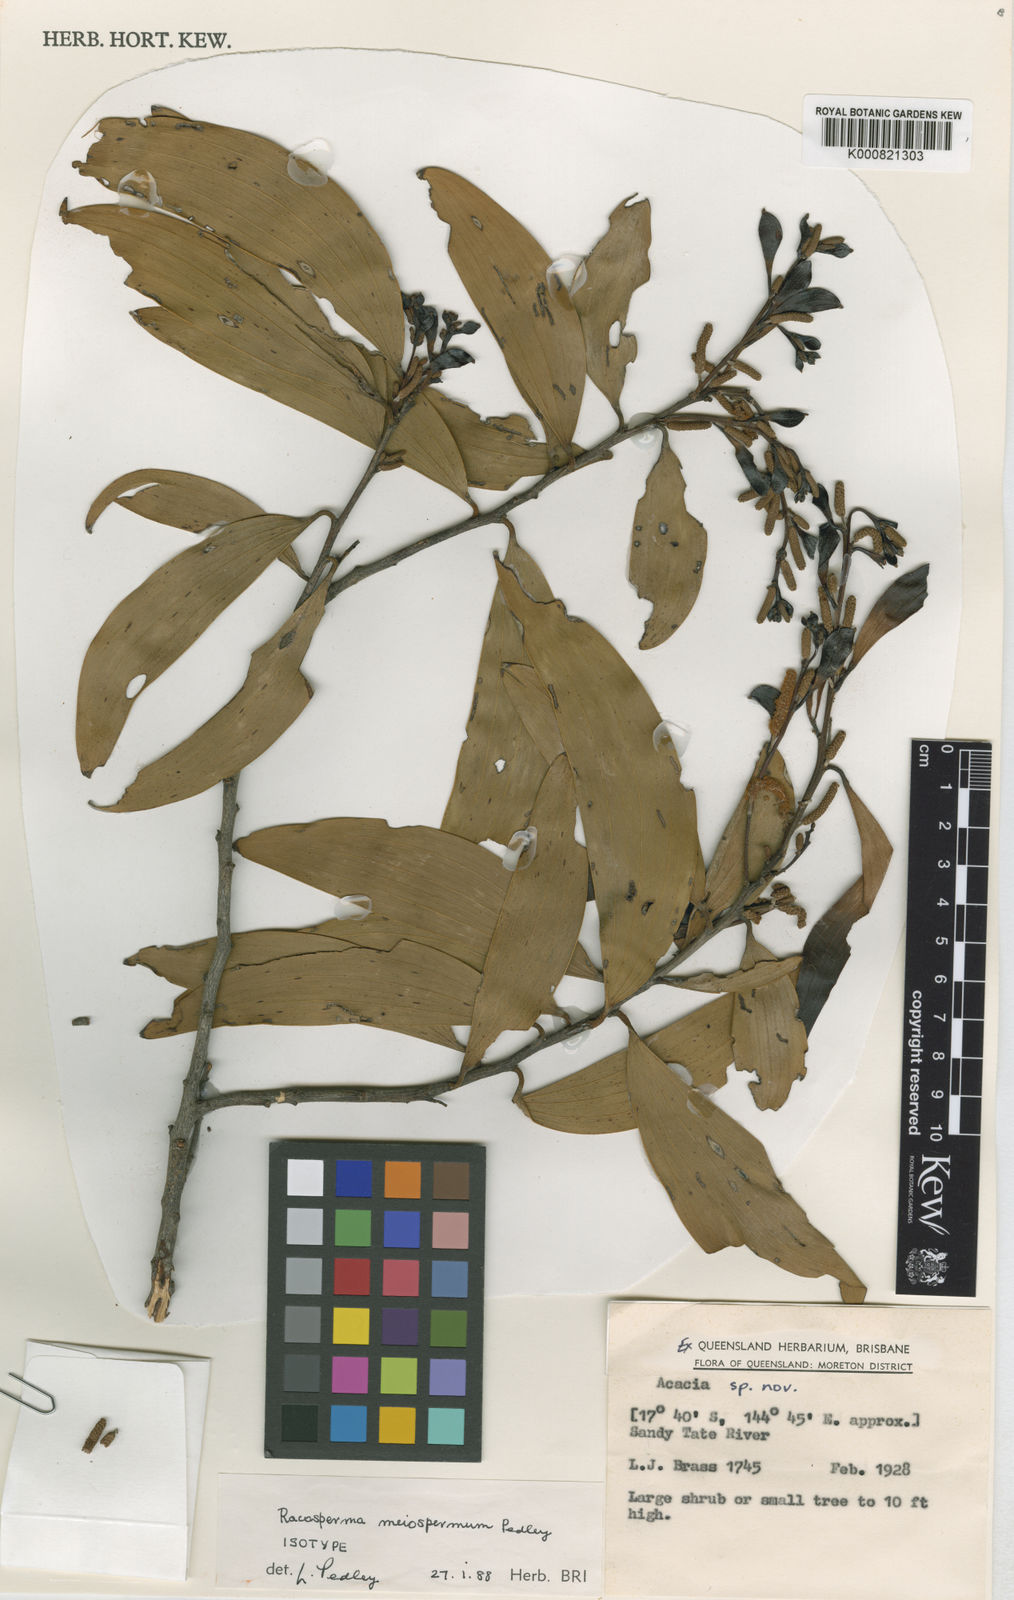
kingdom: Plantae
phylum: Tracheophyta
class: Magnoliopsida
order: Fabales
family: Fabaceae
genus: Acacia
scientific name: Acacia
